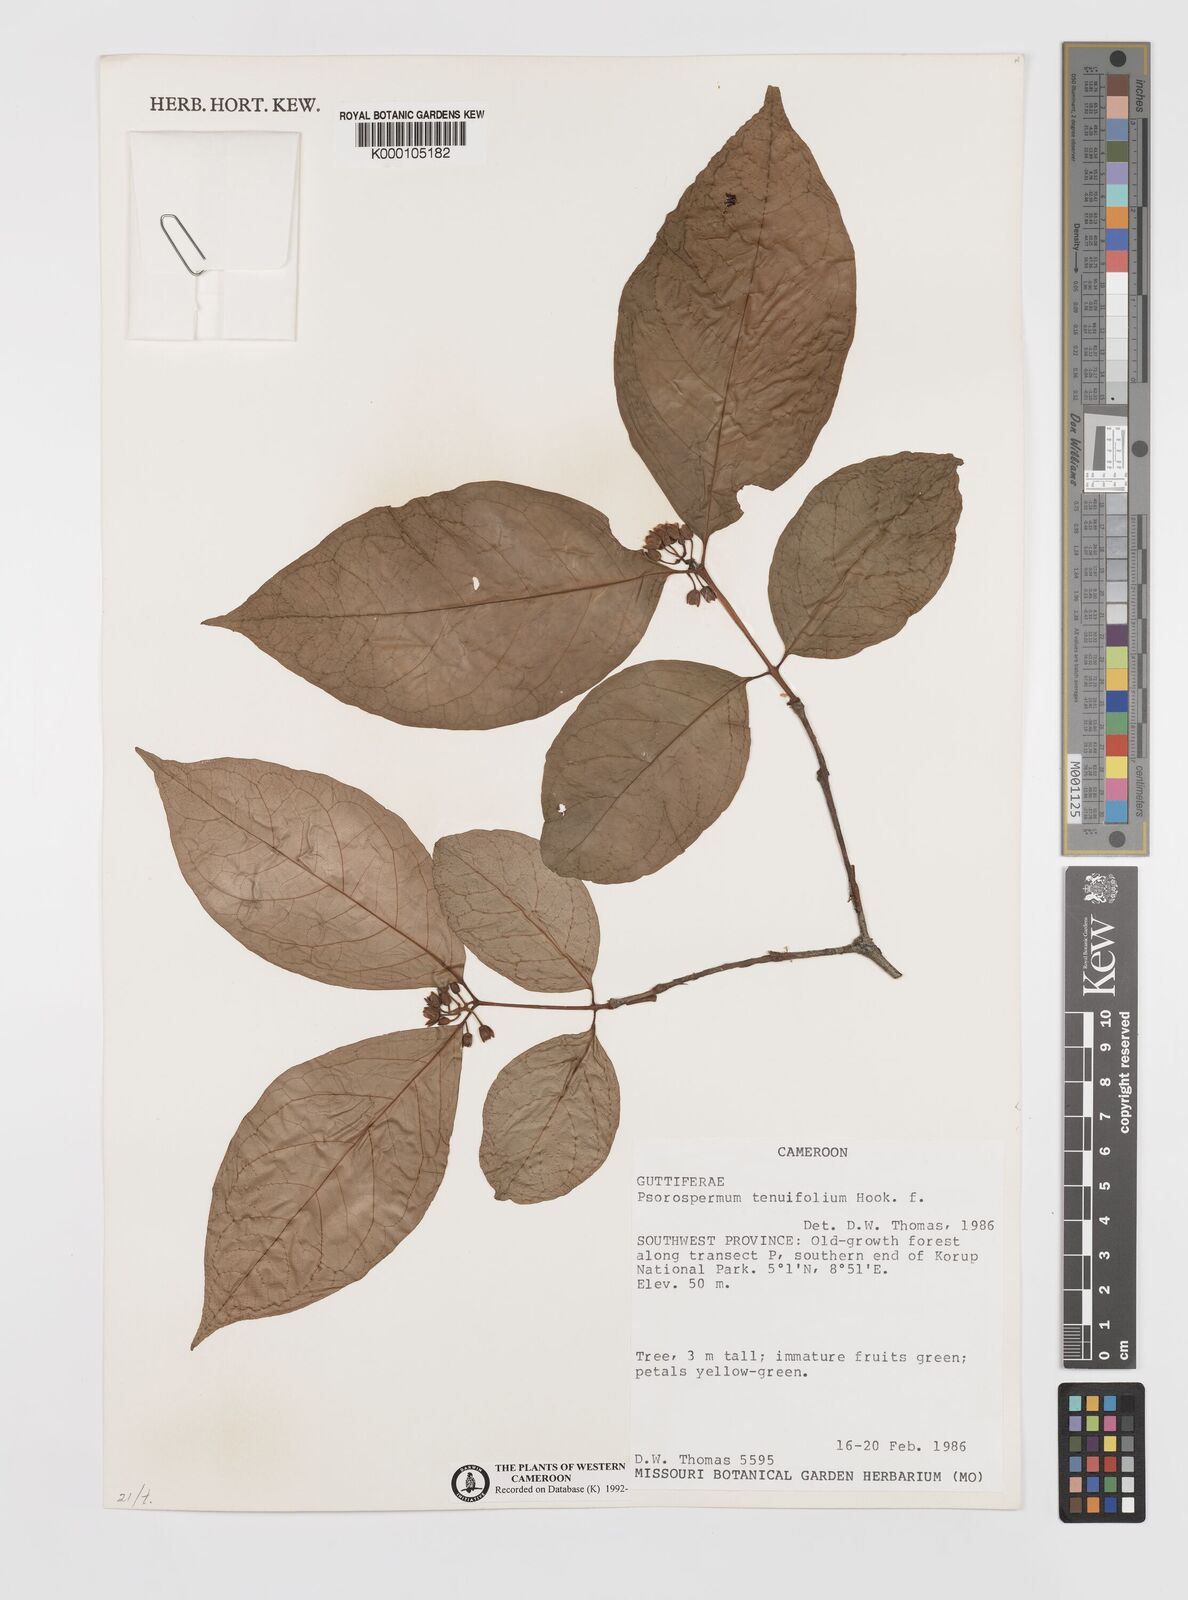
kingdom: Plantae
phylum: Tracheophyta
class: Magnoliopsida
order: Malpighiales
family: Hypericaceae
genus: Psorospermum
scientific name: Psorospermum tenuifolium
